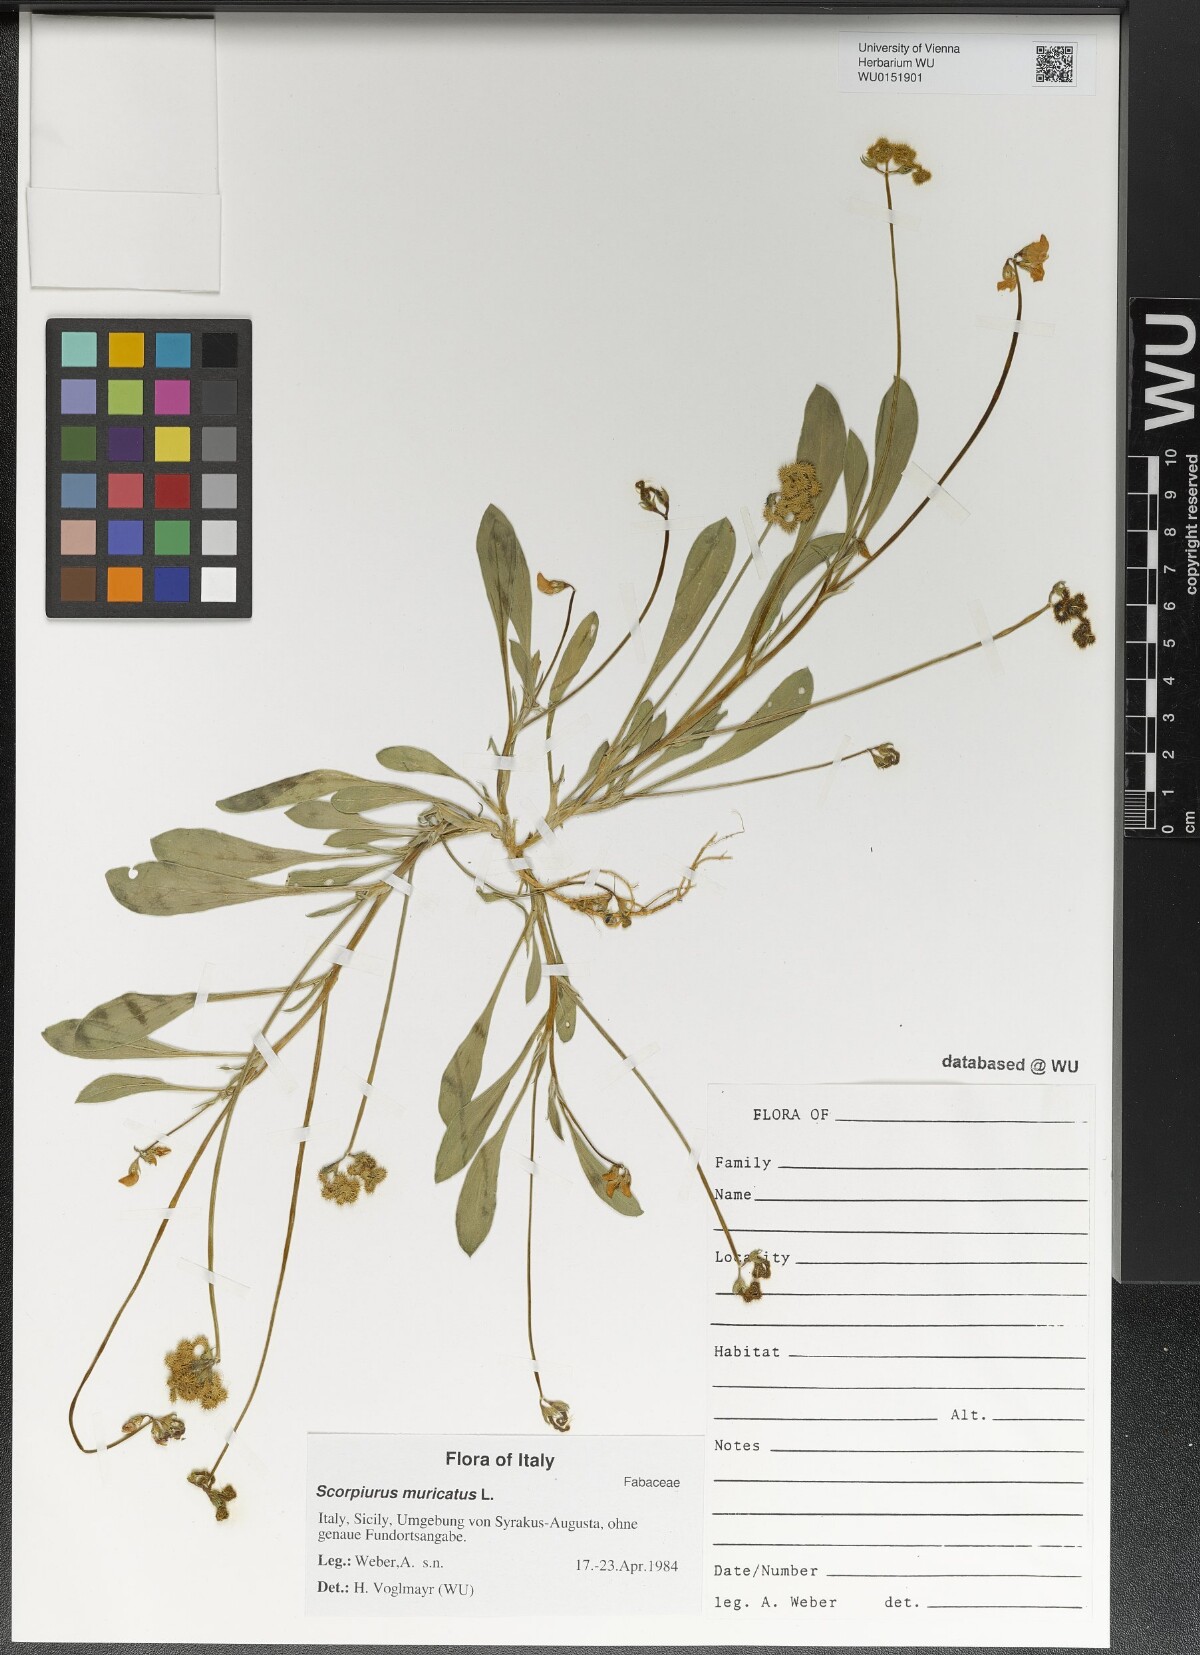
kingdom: Plantae
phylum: Tracheophyta
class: Magnoliopsida
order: Fabales
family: Fabaceae
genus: Scorpiurus
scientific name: Scorpiurus muricatus
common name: Caterpillar-plant
